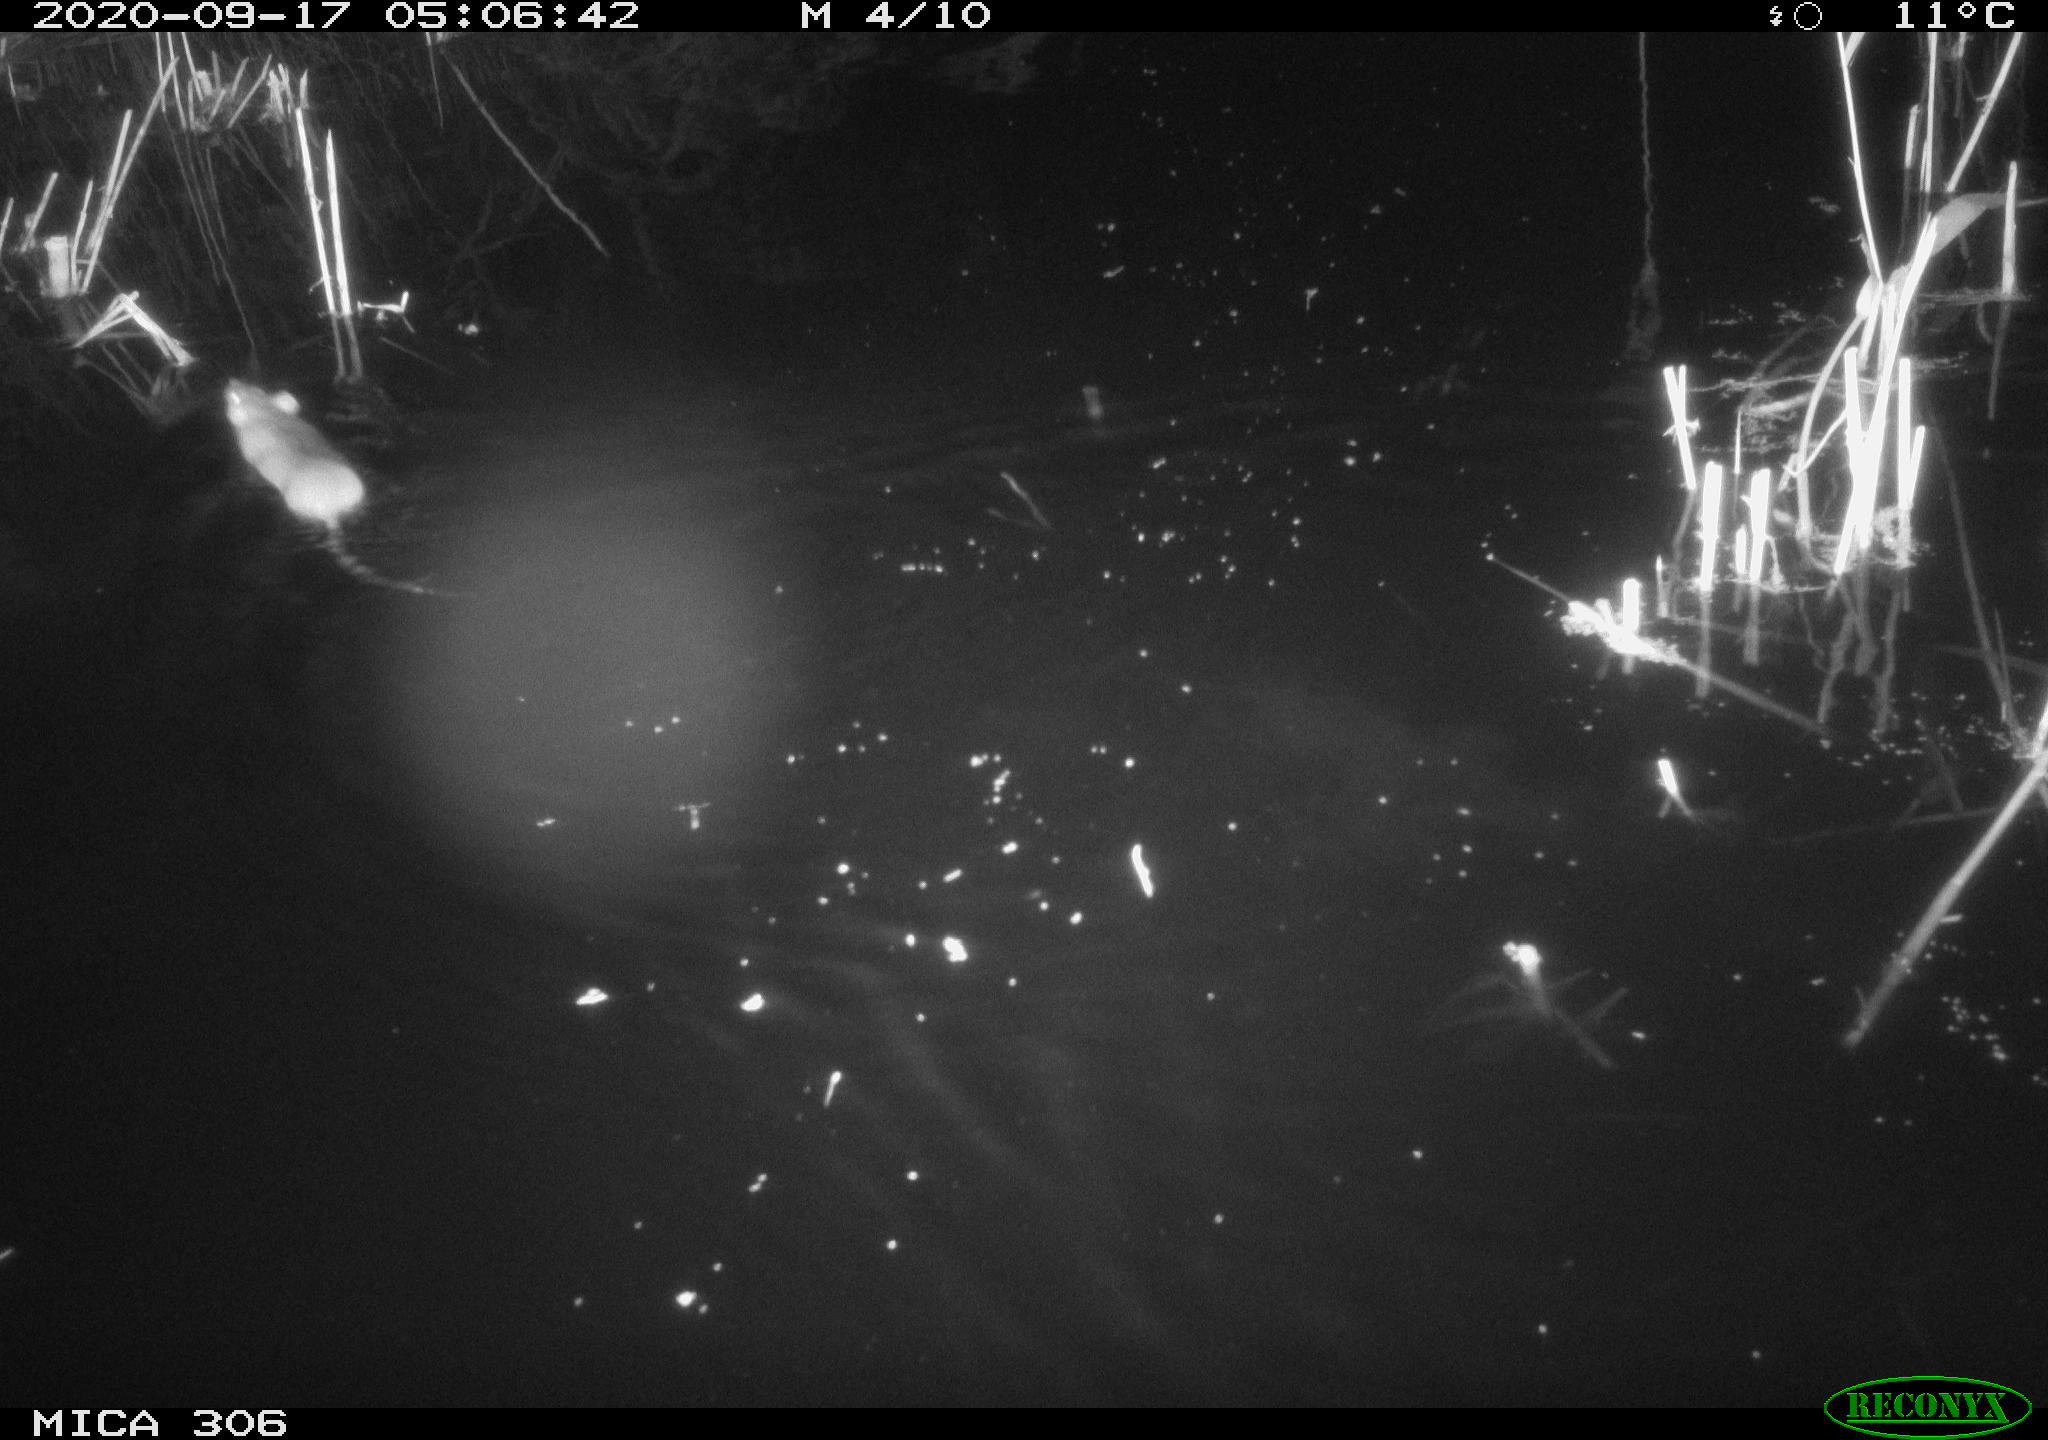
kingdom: Animalia
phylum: Chordata
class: Mammalia
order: Rodentia
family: Cricetidae
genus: Ondatra
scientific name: Ondatra zibethicus
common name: Muskrat
